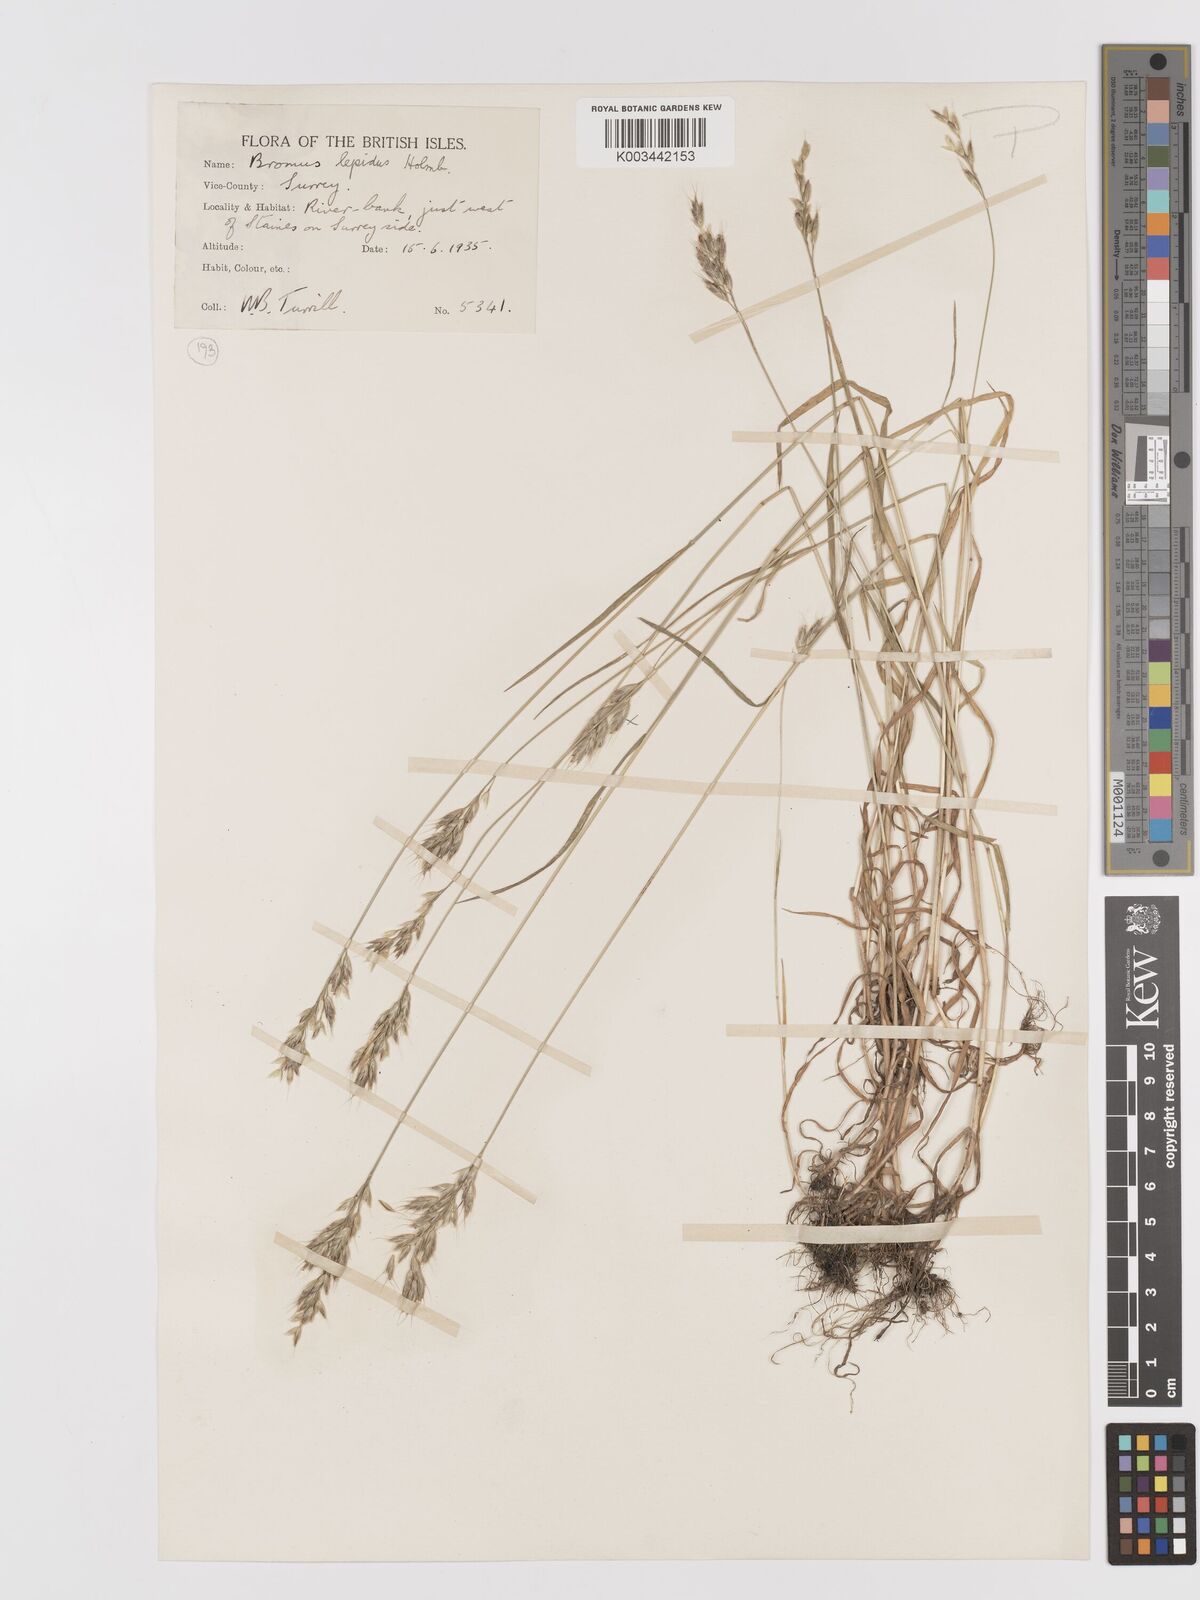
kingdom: Plantae
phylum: Tracheophyta
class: Liliopsida
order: Poales
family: Poaceae
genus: Bromus
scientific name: Bromus lepidus
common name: Slender soft-brome
